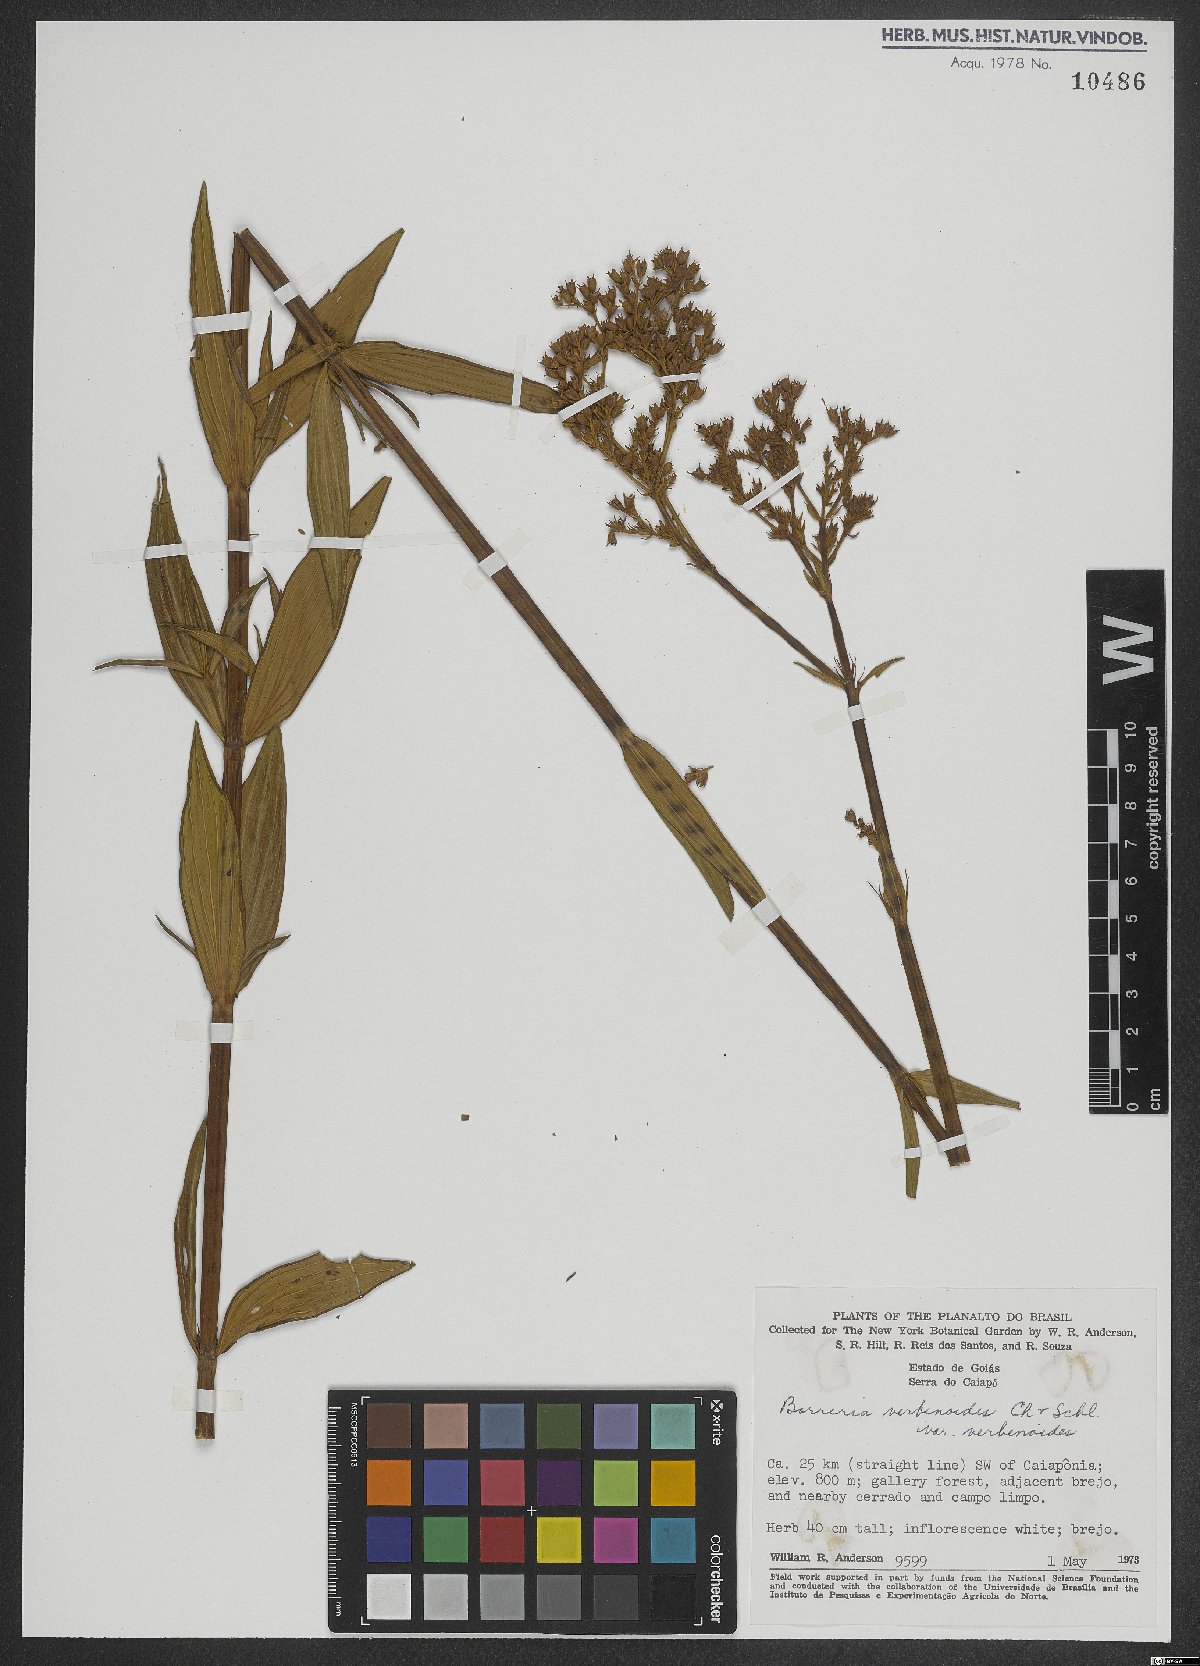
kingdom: Plantae
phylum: Tracheophyta
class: Magnoliopsida
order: Gentianales
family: Rubiaceae
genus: Spermacoce
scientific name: Spermacoce verbenoides
